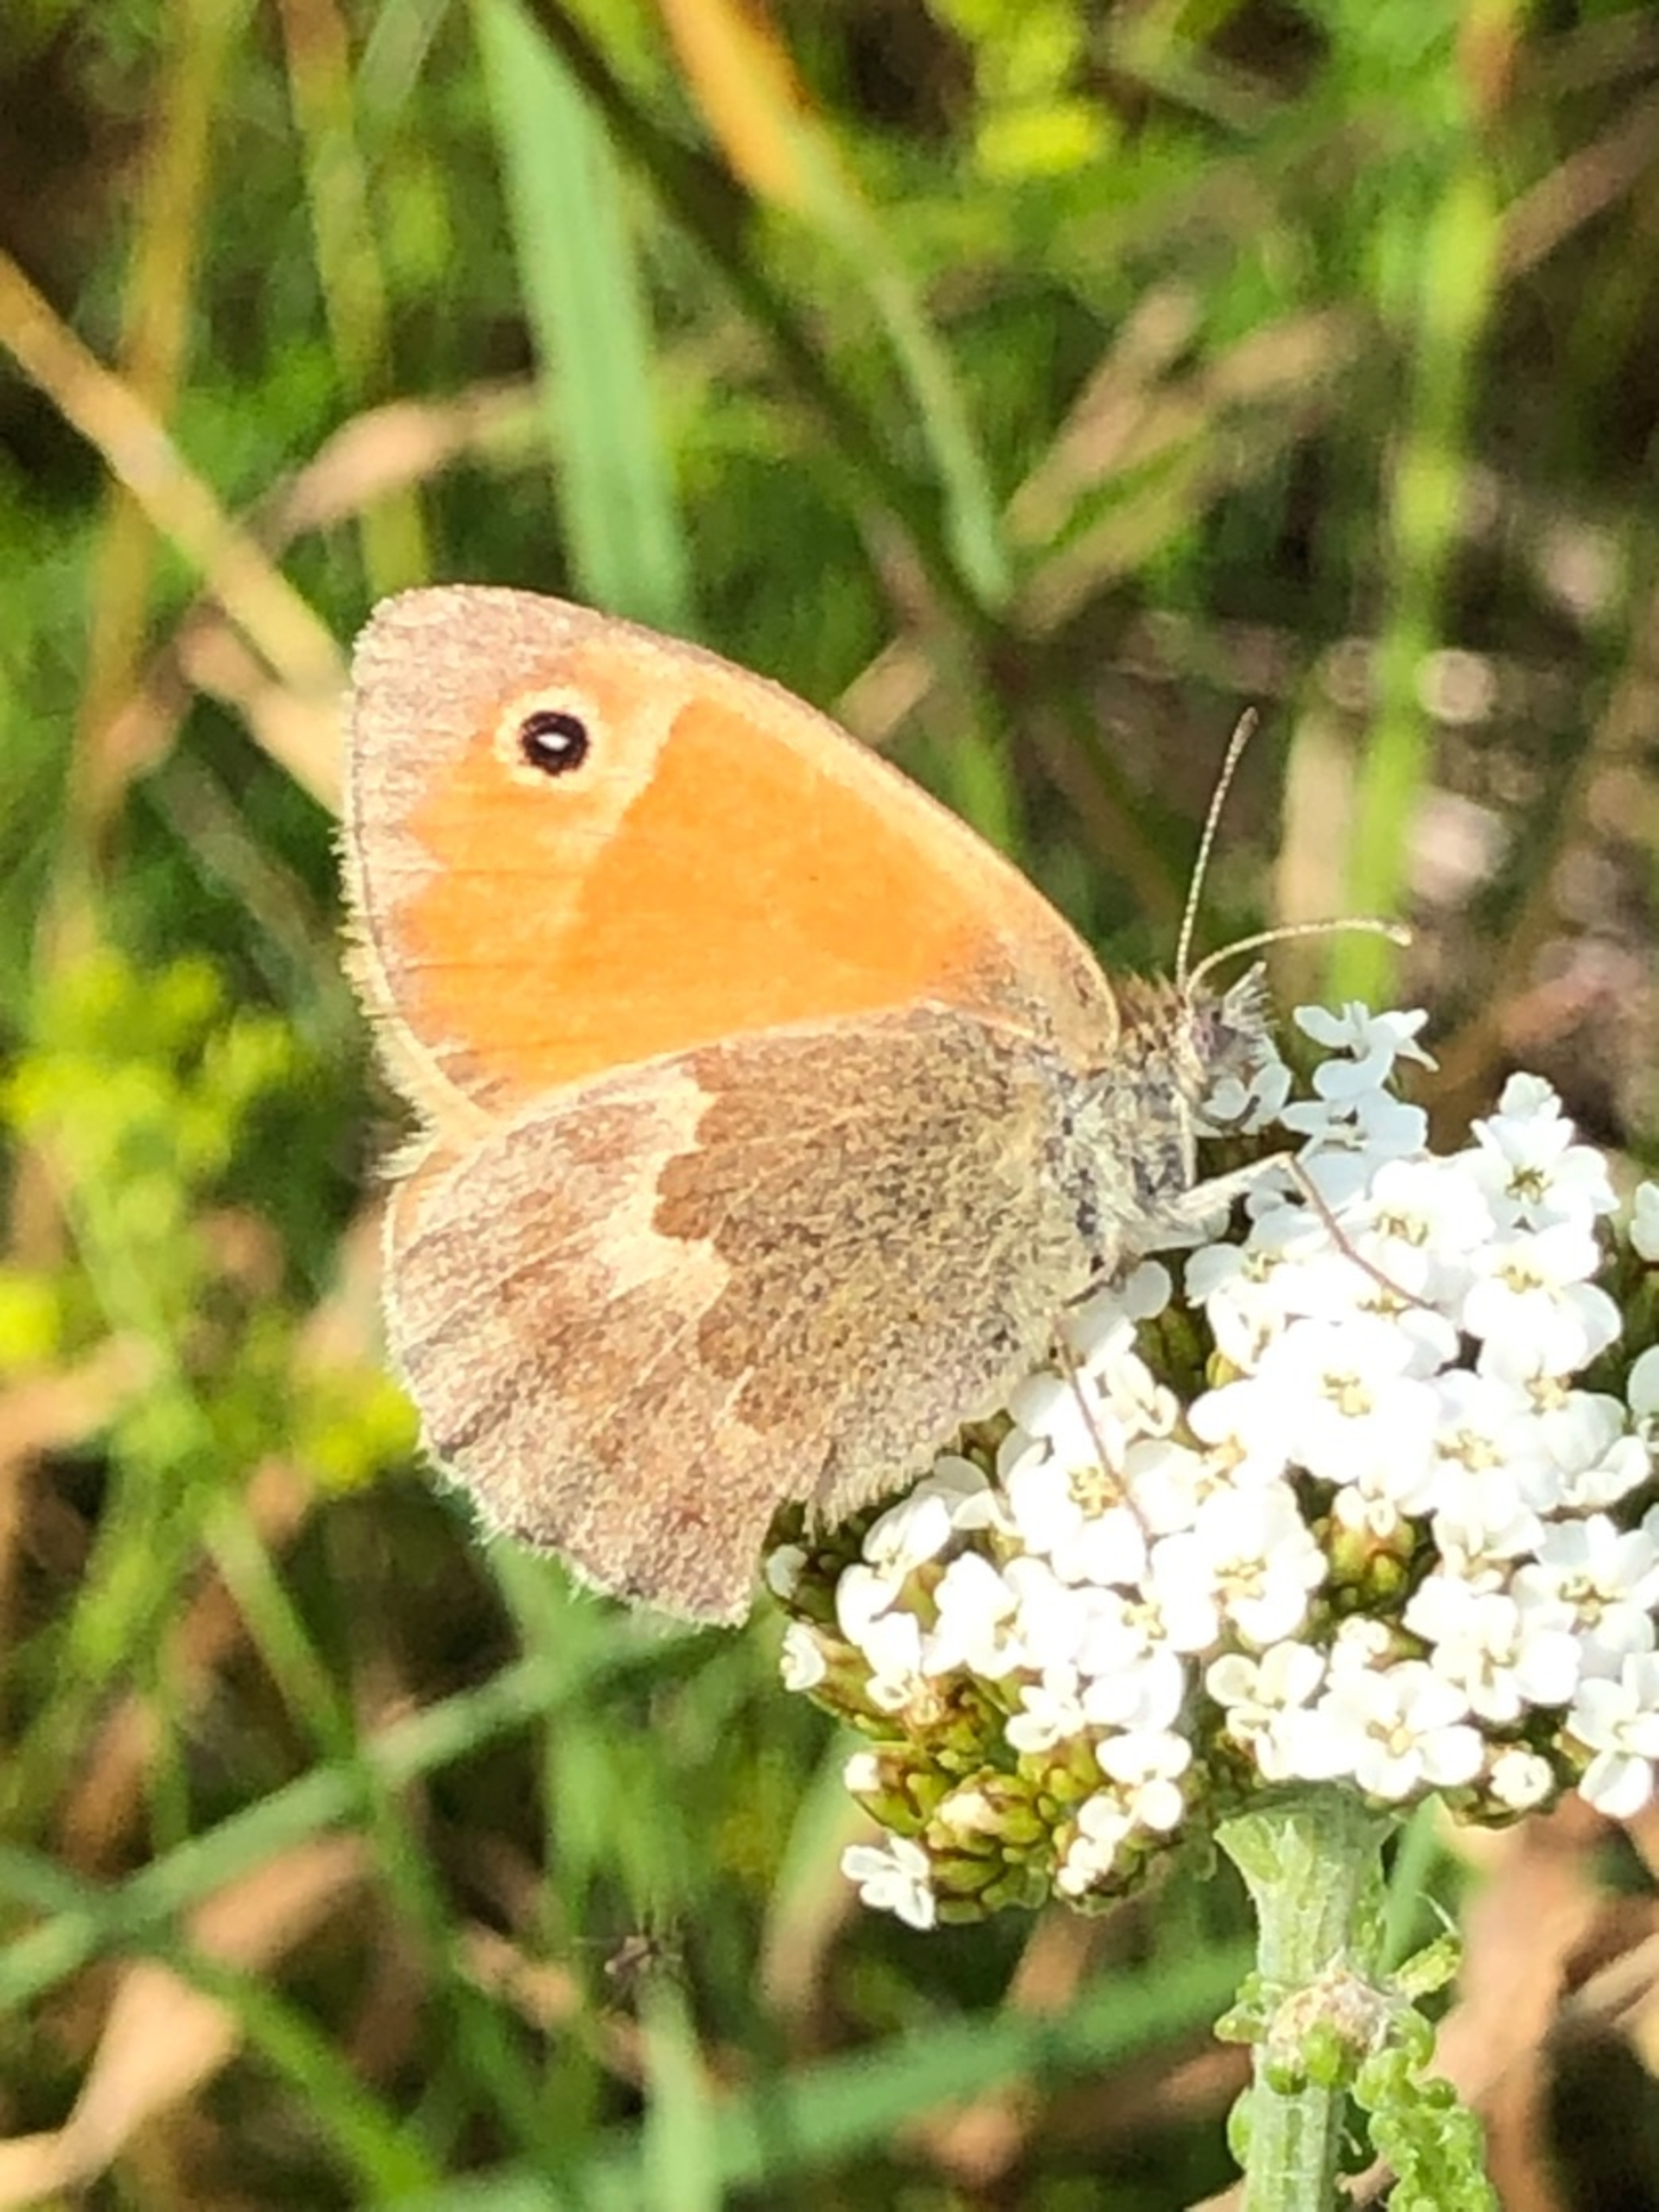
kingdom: Animalia
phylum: Arthropoda
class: Insecta
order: Lepidoptera
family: Nymphalidae
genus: Coenonympha
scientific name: Coenonympha pamphilus
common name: Okkergul randøje
